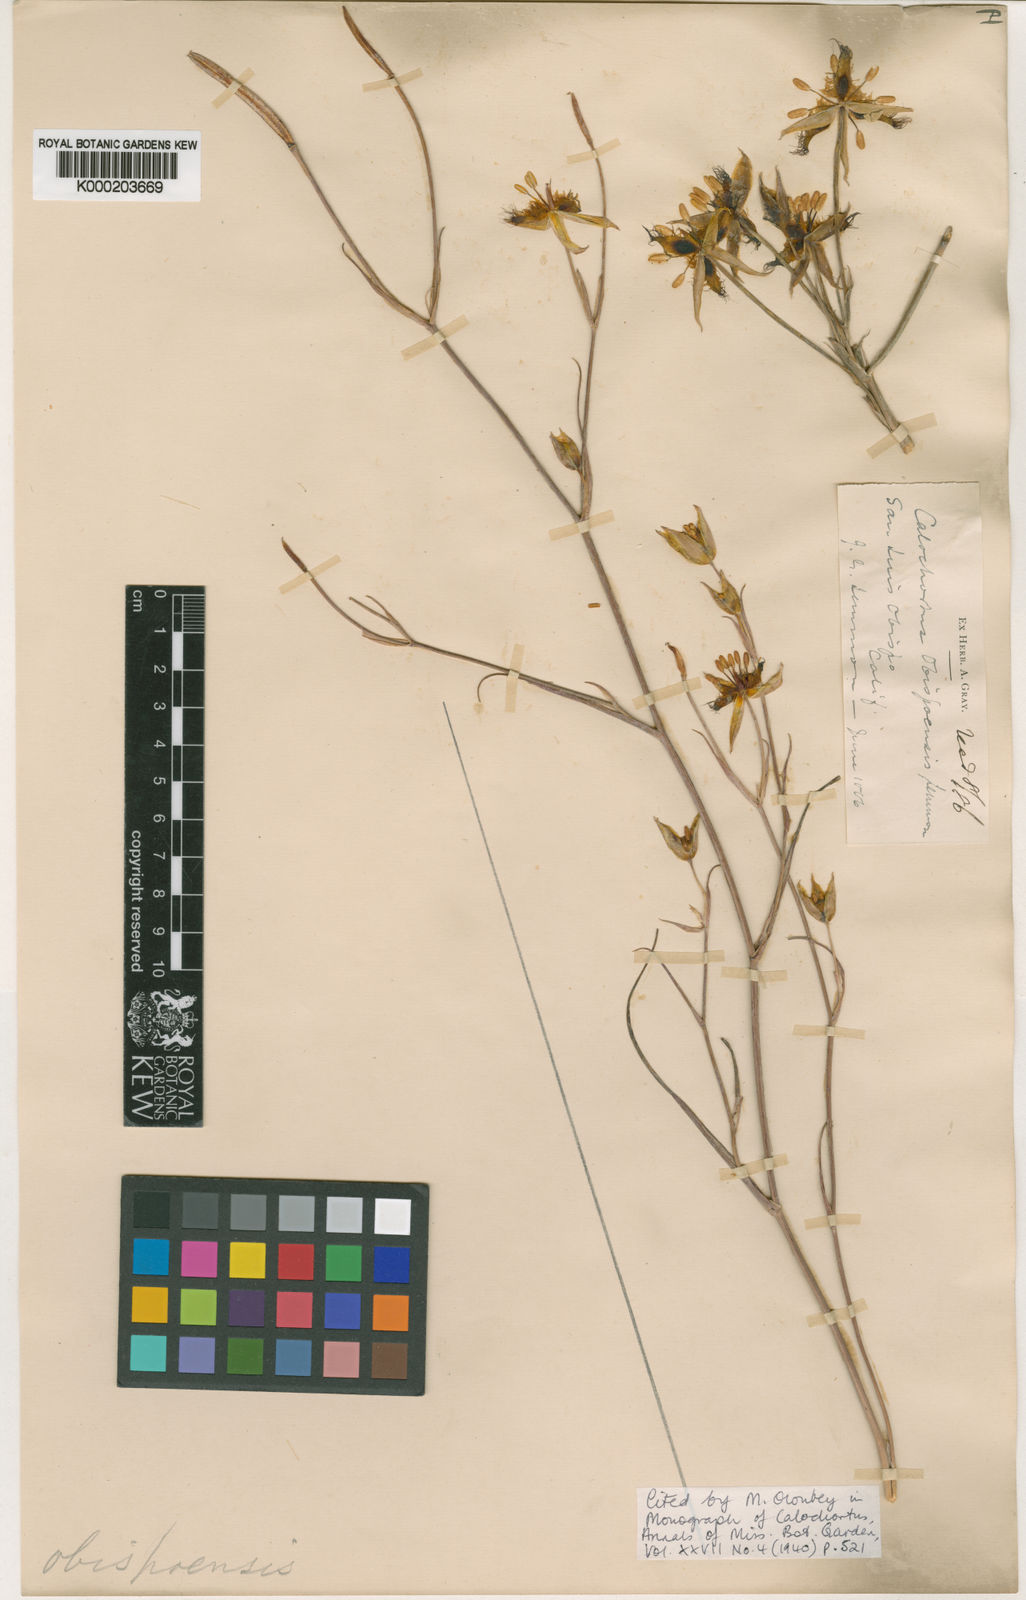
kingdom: Plantae
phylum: Tracheophyta
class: Liliopsida
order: Liliales
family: Liliaceae
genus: Calochortus
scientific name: Calochortus obispoensis
